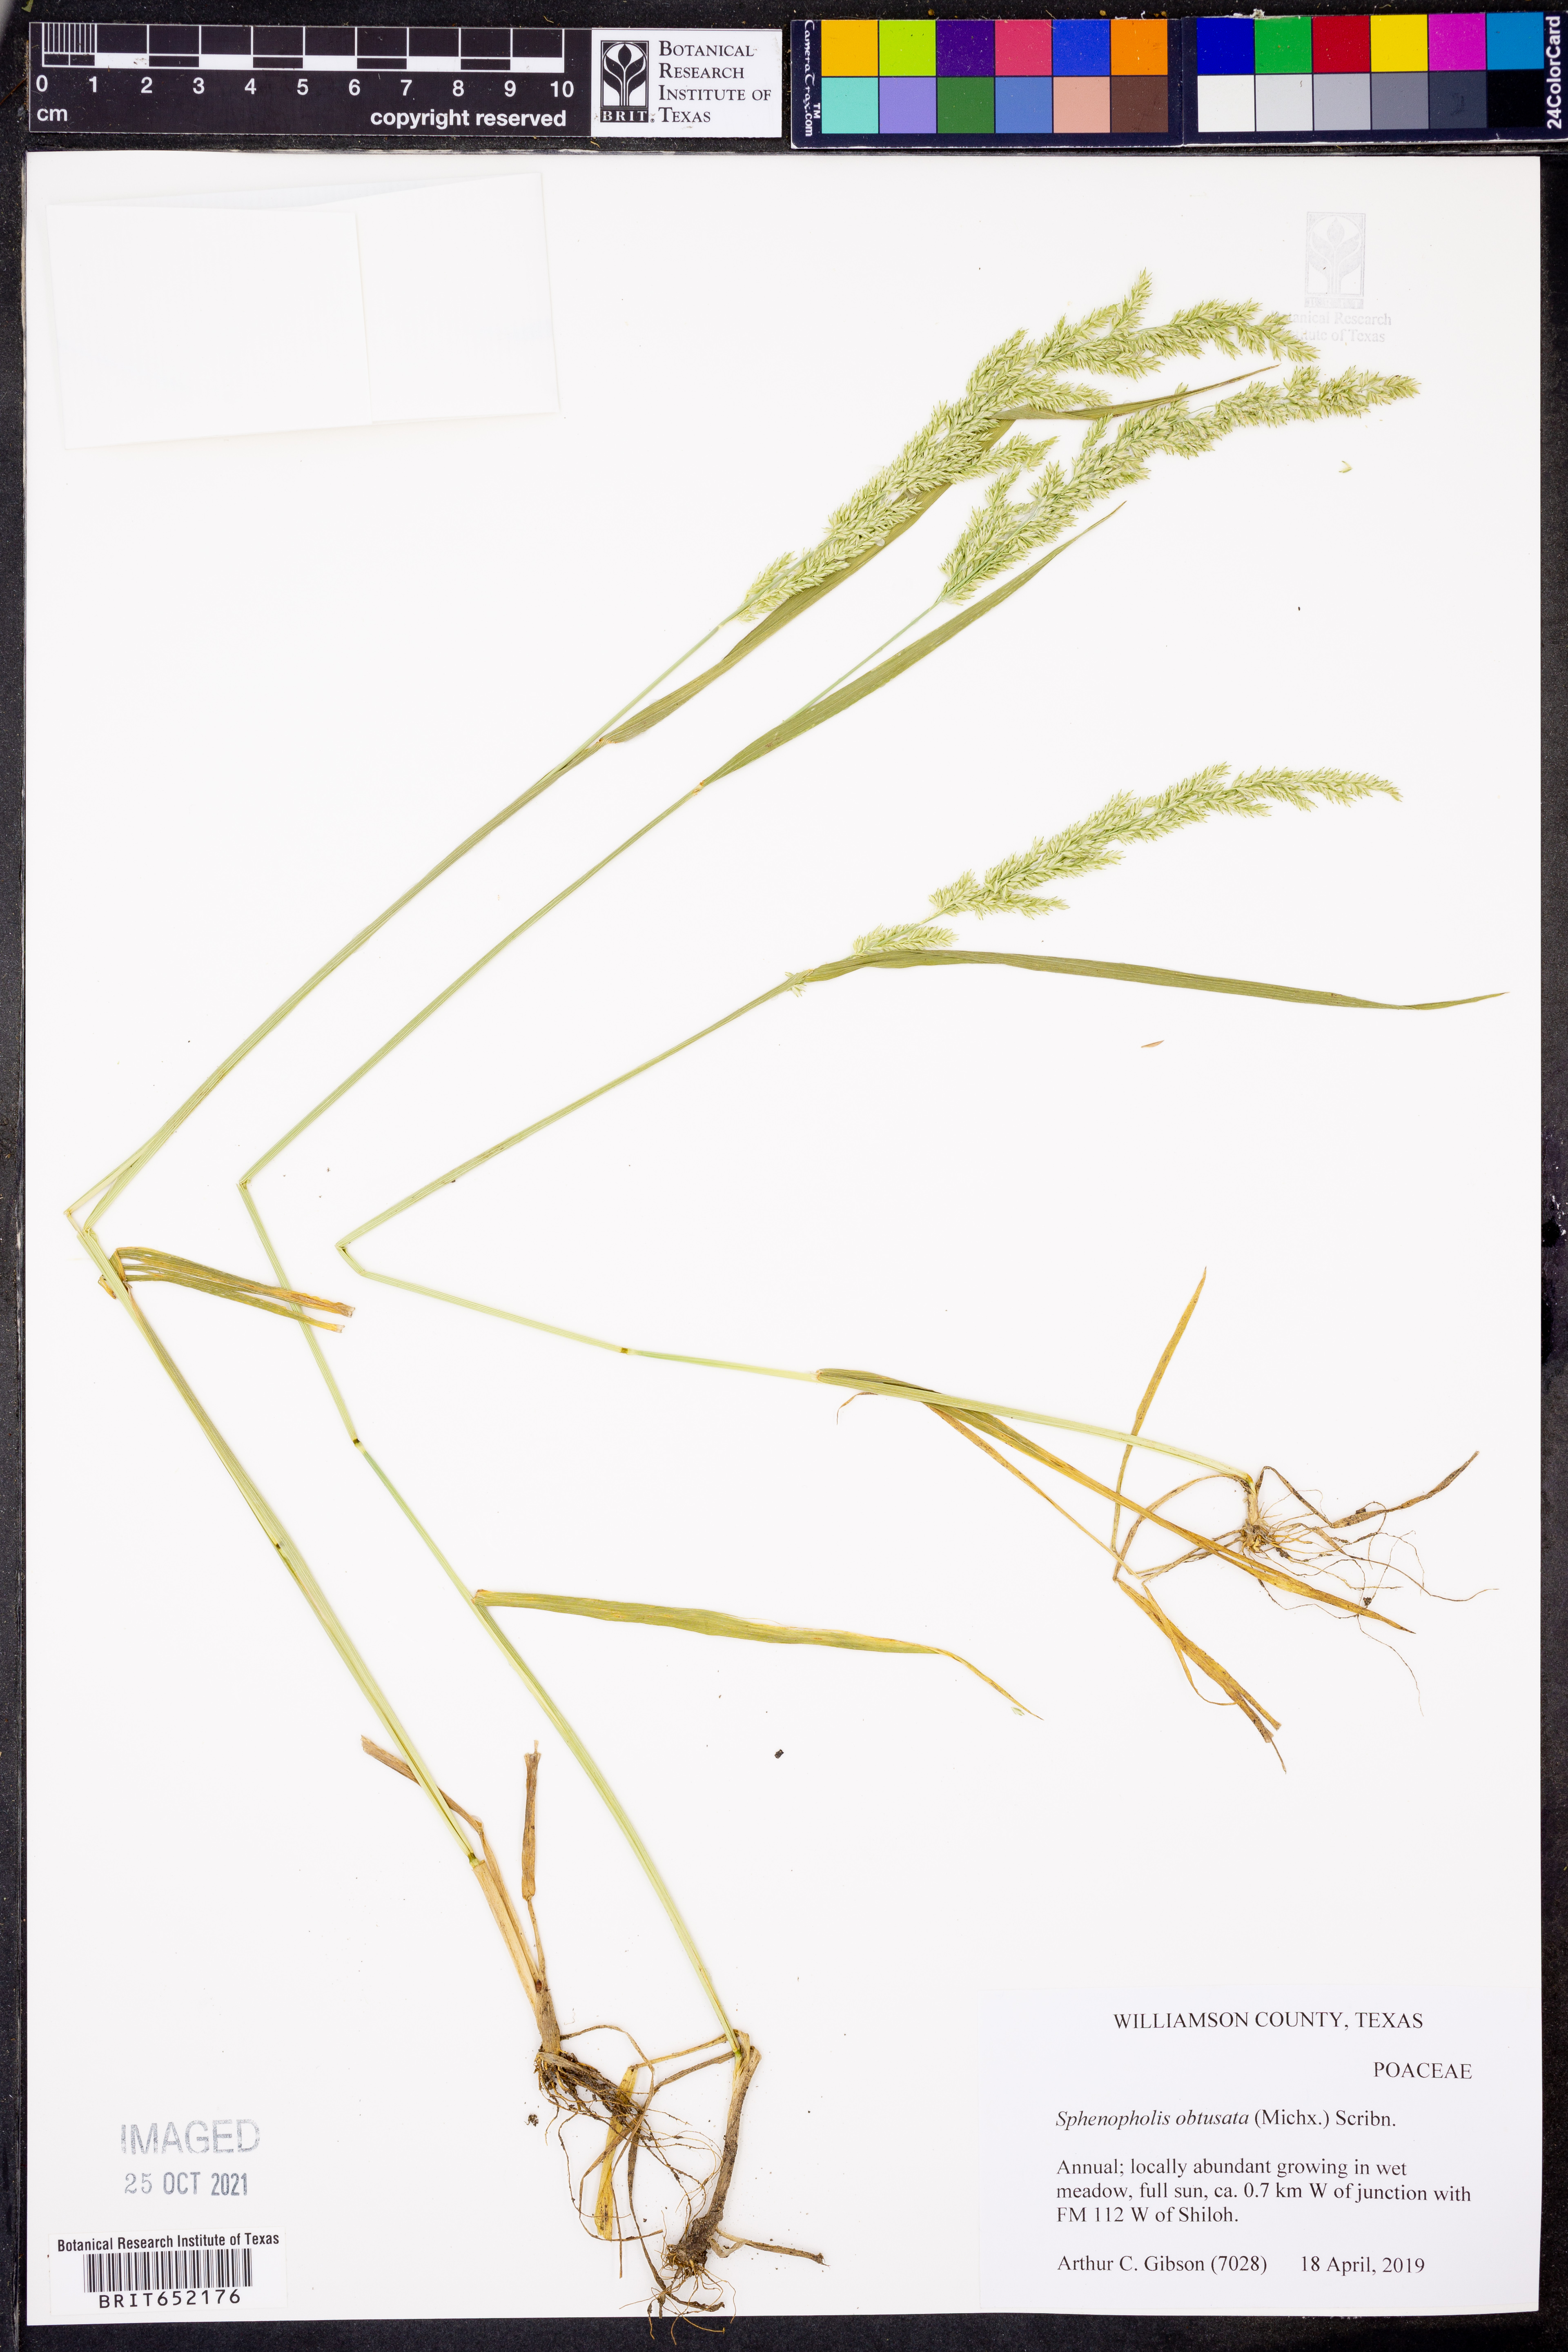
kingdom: Plantae
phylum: Tracheophyta
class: Liliopsida
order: Poales
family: Poaceae
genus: Sphenopholis
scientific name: Sphenopholis obtusata
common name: Prairie grass
